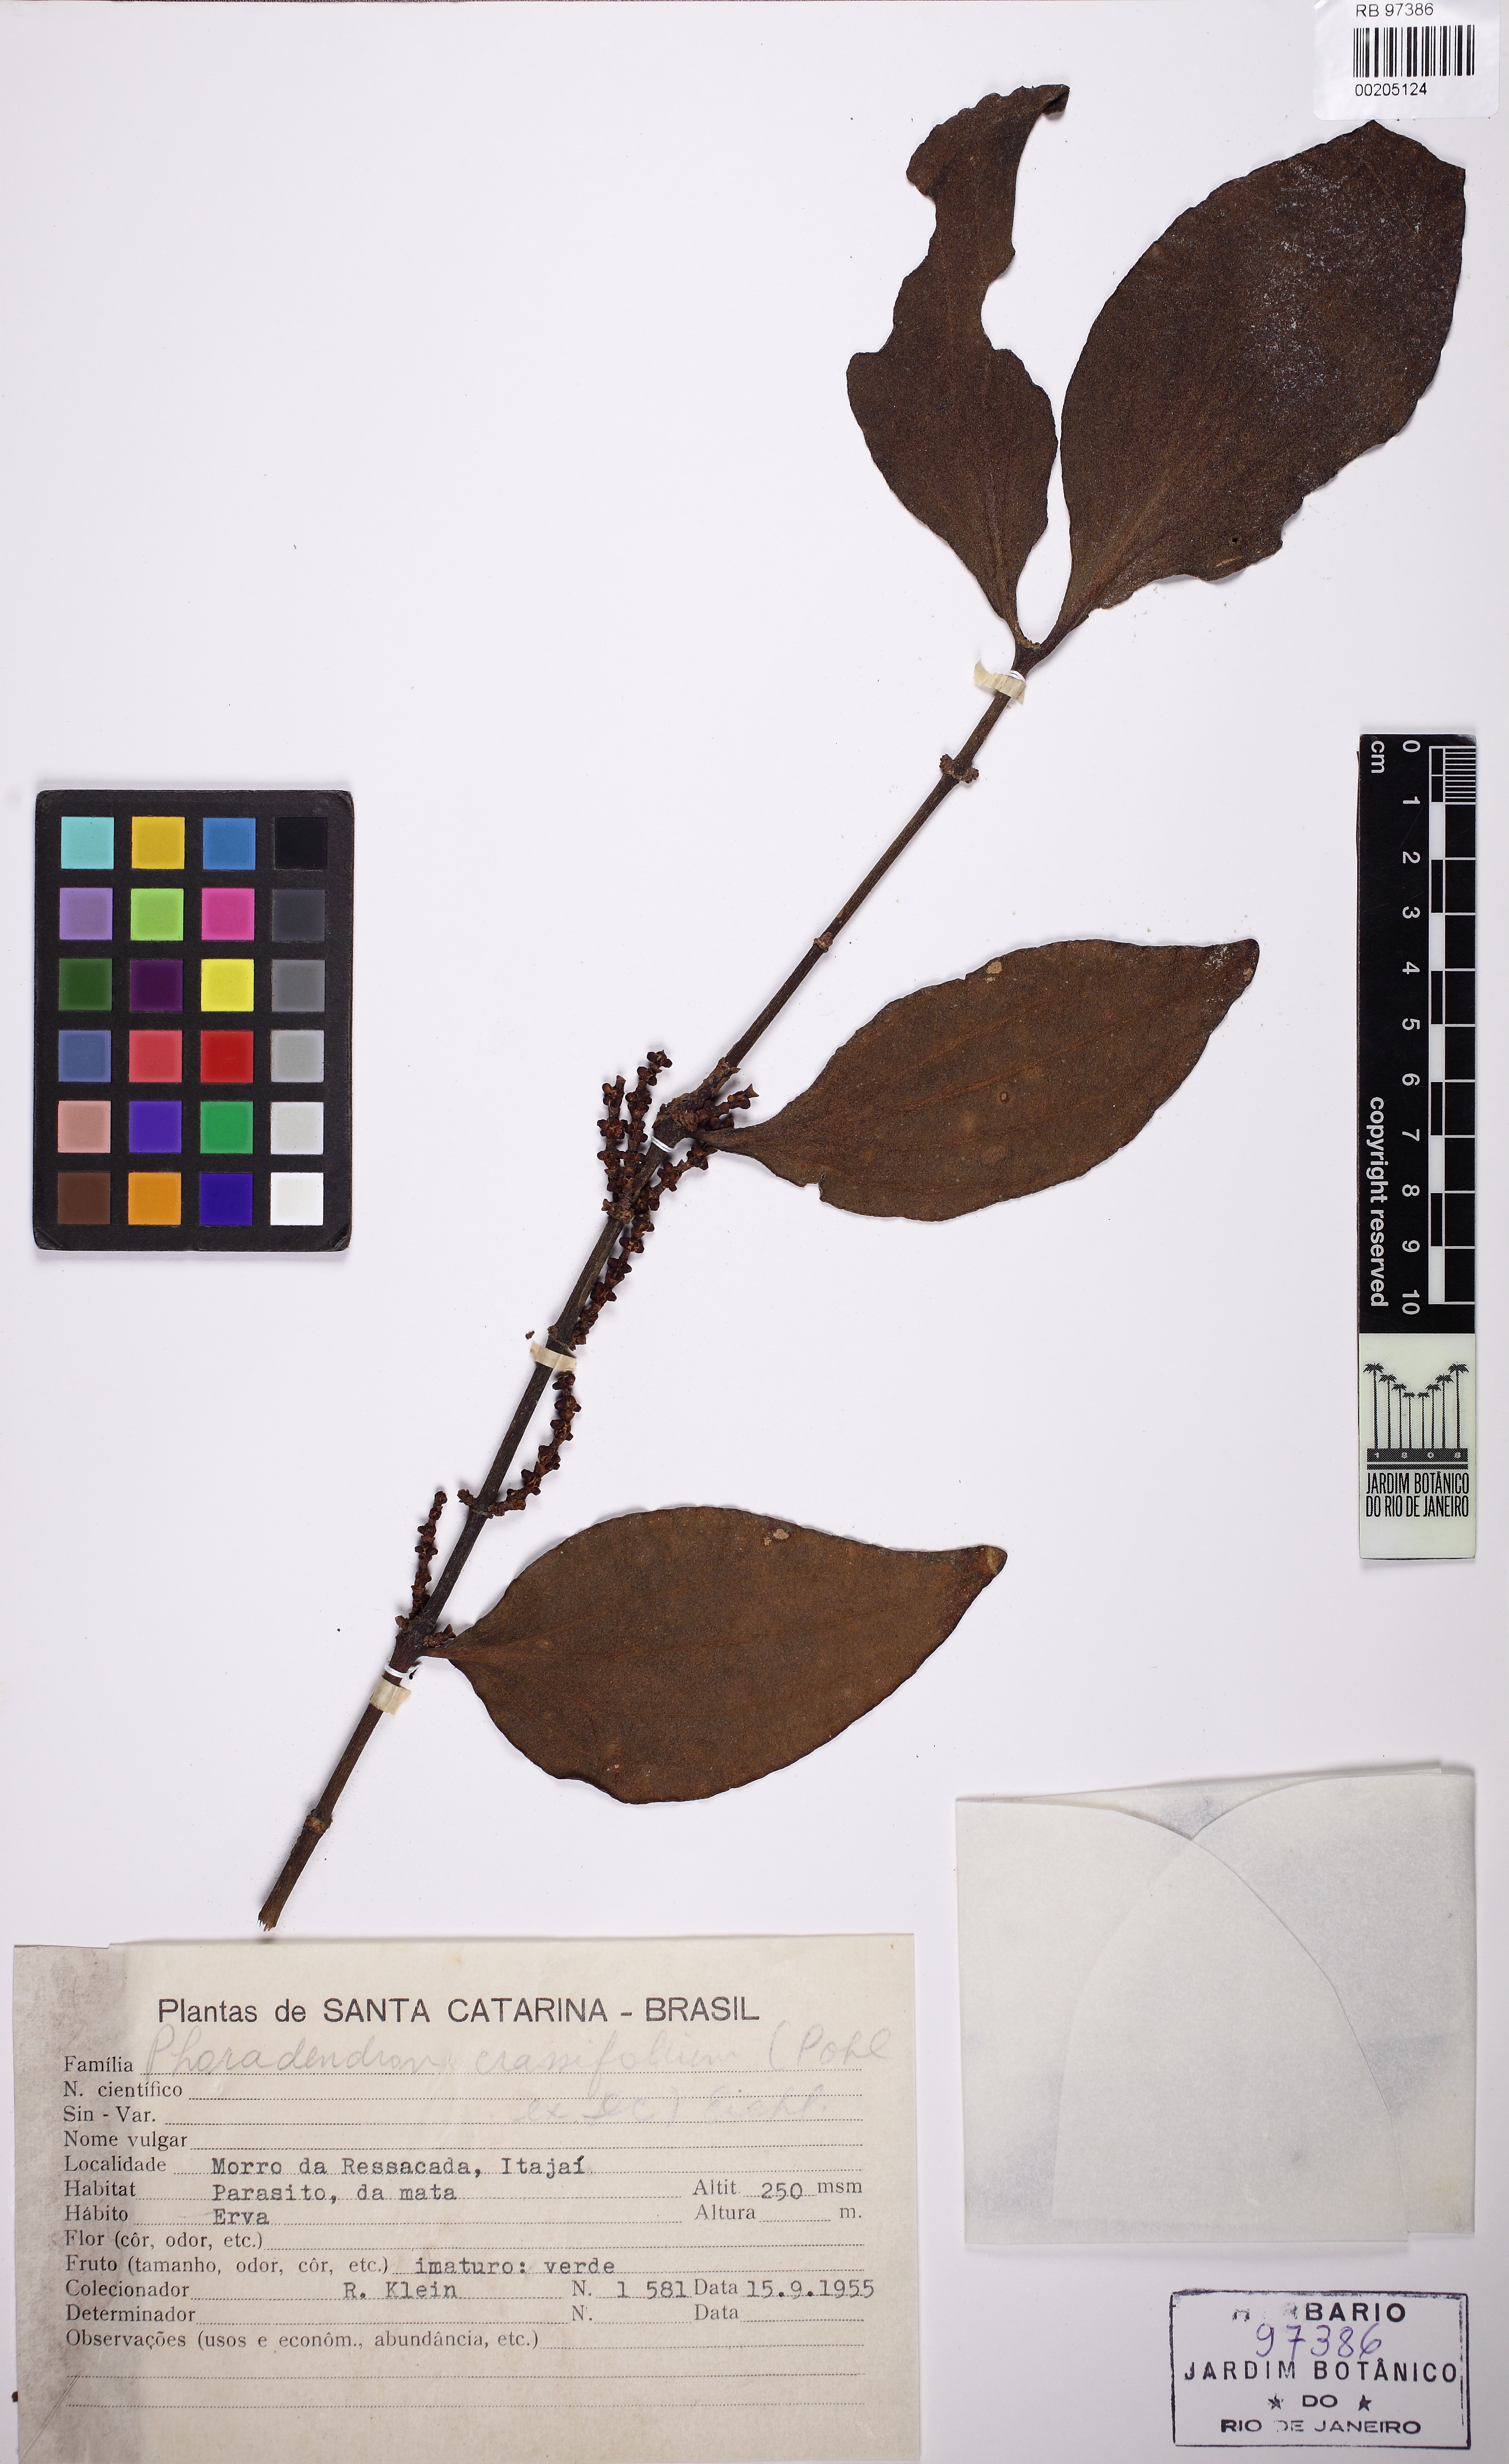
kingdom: Plantae
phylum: Tracheophyta
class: Magnoliopsida
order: Santalales
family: Viscaceae
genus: Phoradendron
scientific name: Phoradendron crassifolium
